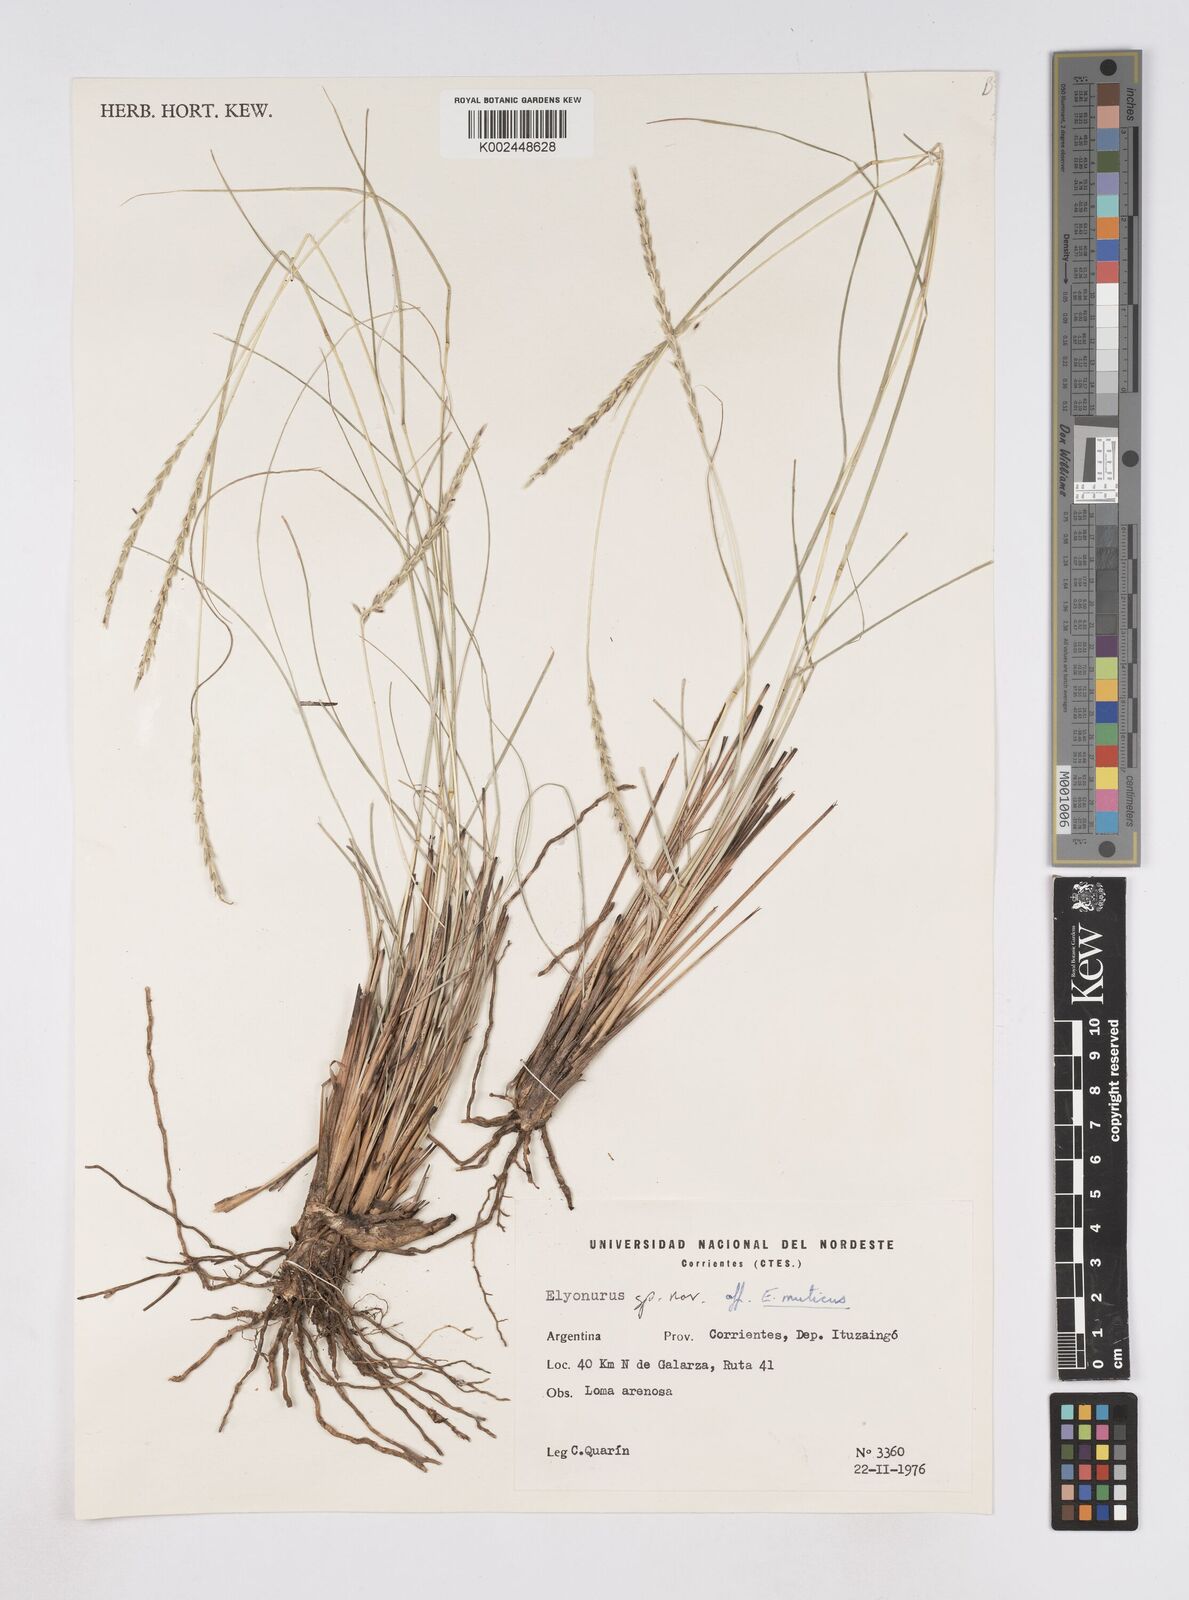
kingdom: Plantae
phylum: Tracheophyta
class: Liliopsida
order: Poales
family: Poaceae
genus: Elionurus
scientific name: Elionurus
